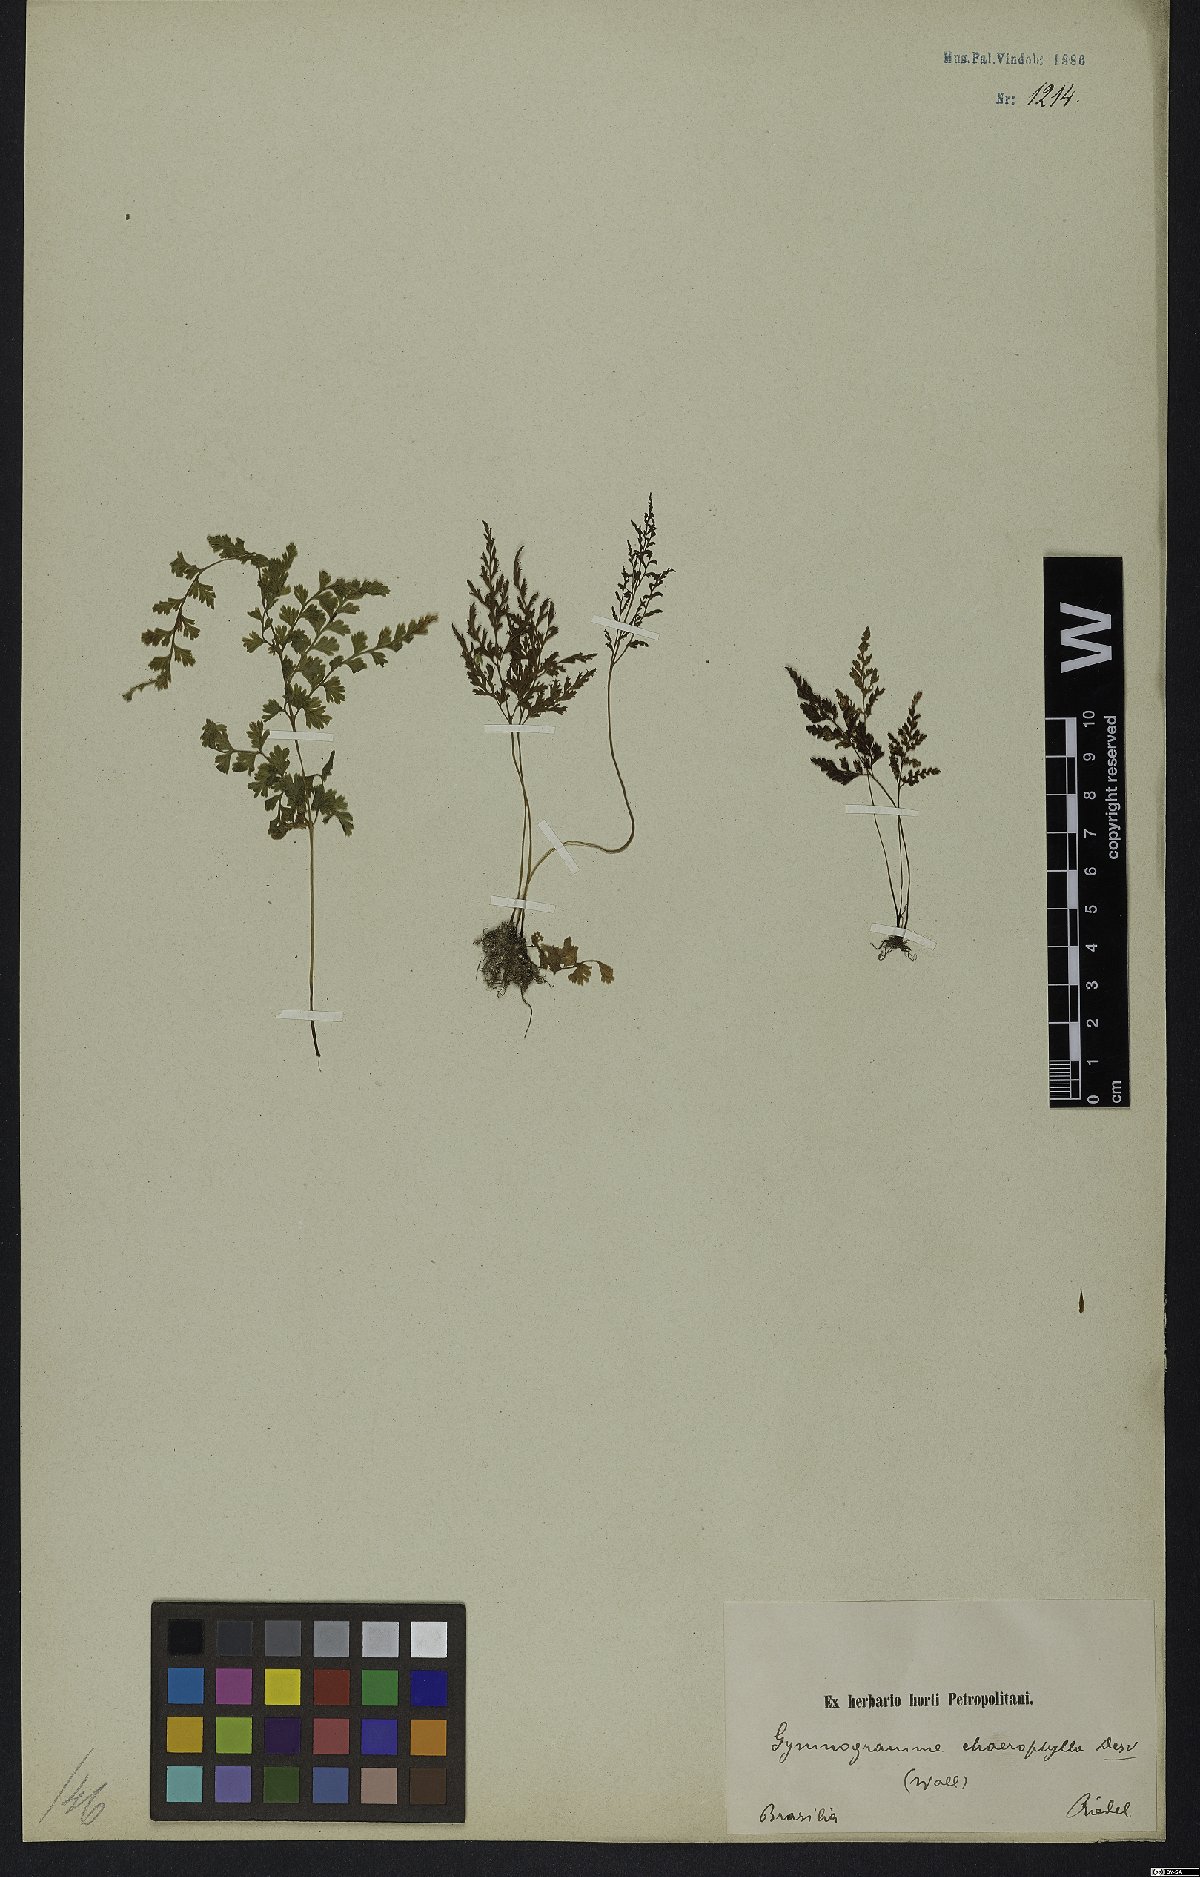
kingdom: Plantae
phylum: Tracheophyta
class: Polypodiopsida
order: Polypodiales
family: Pteridaceae
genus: Gastoniella
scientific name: Gastoniella chaerophylla
